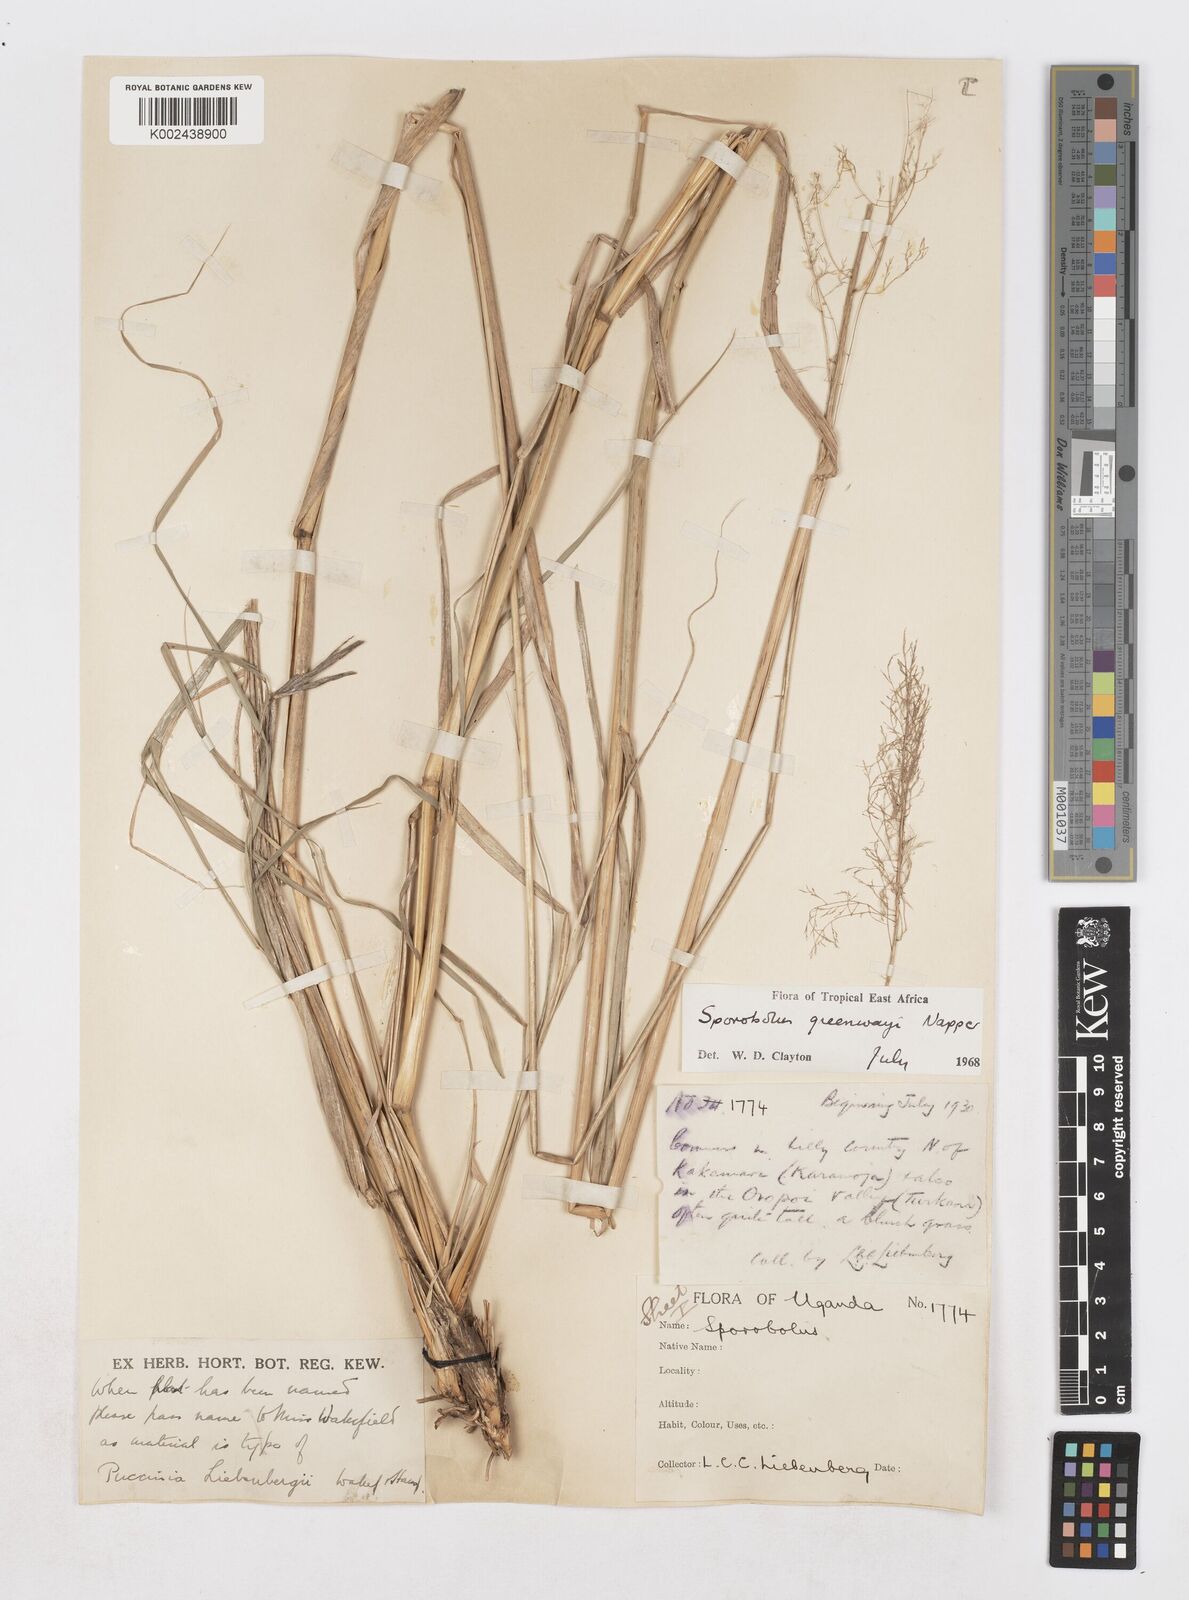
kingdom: Plantae
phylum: Tracheophyta
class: Liliopsida
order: Poales
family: Poaceae
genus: Sporobolus
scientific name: Sporobolus macranthelus
